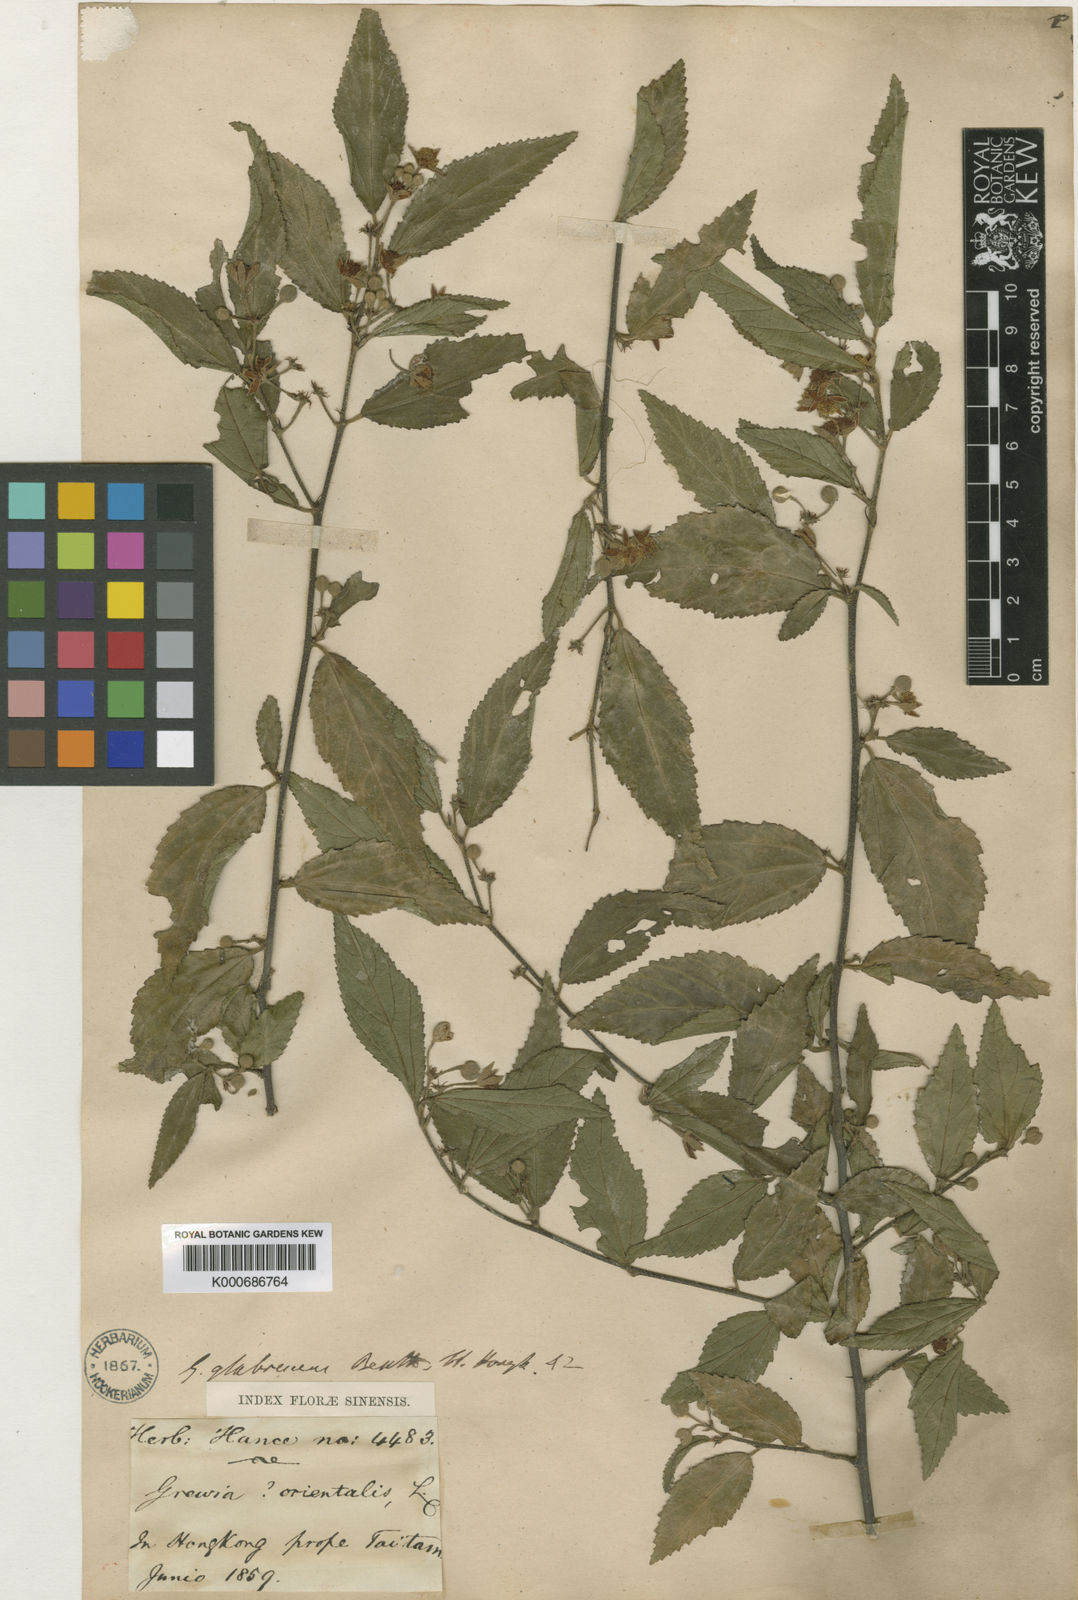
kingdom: Plantae
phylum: Tracheophyta
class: Magnoliopsida
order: Malvales
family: Malvaceae
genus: Grewia
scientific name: Grewia biloba
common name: Bilobed grewia
